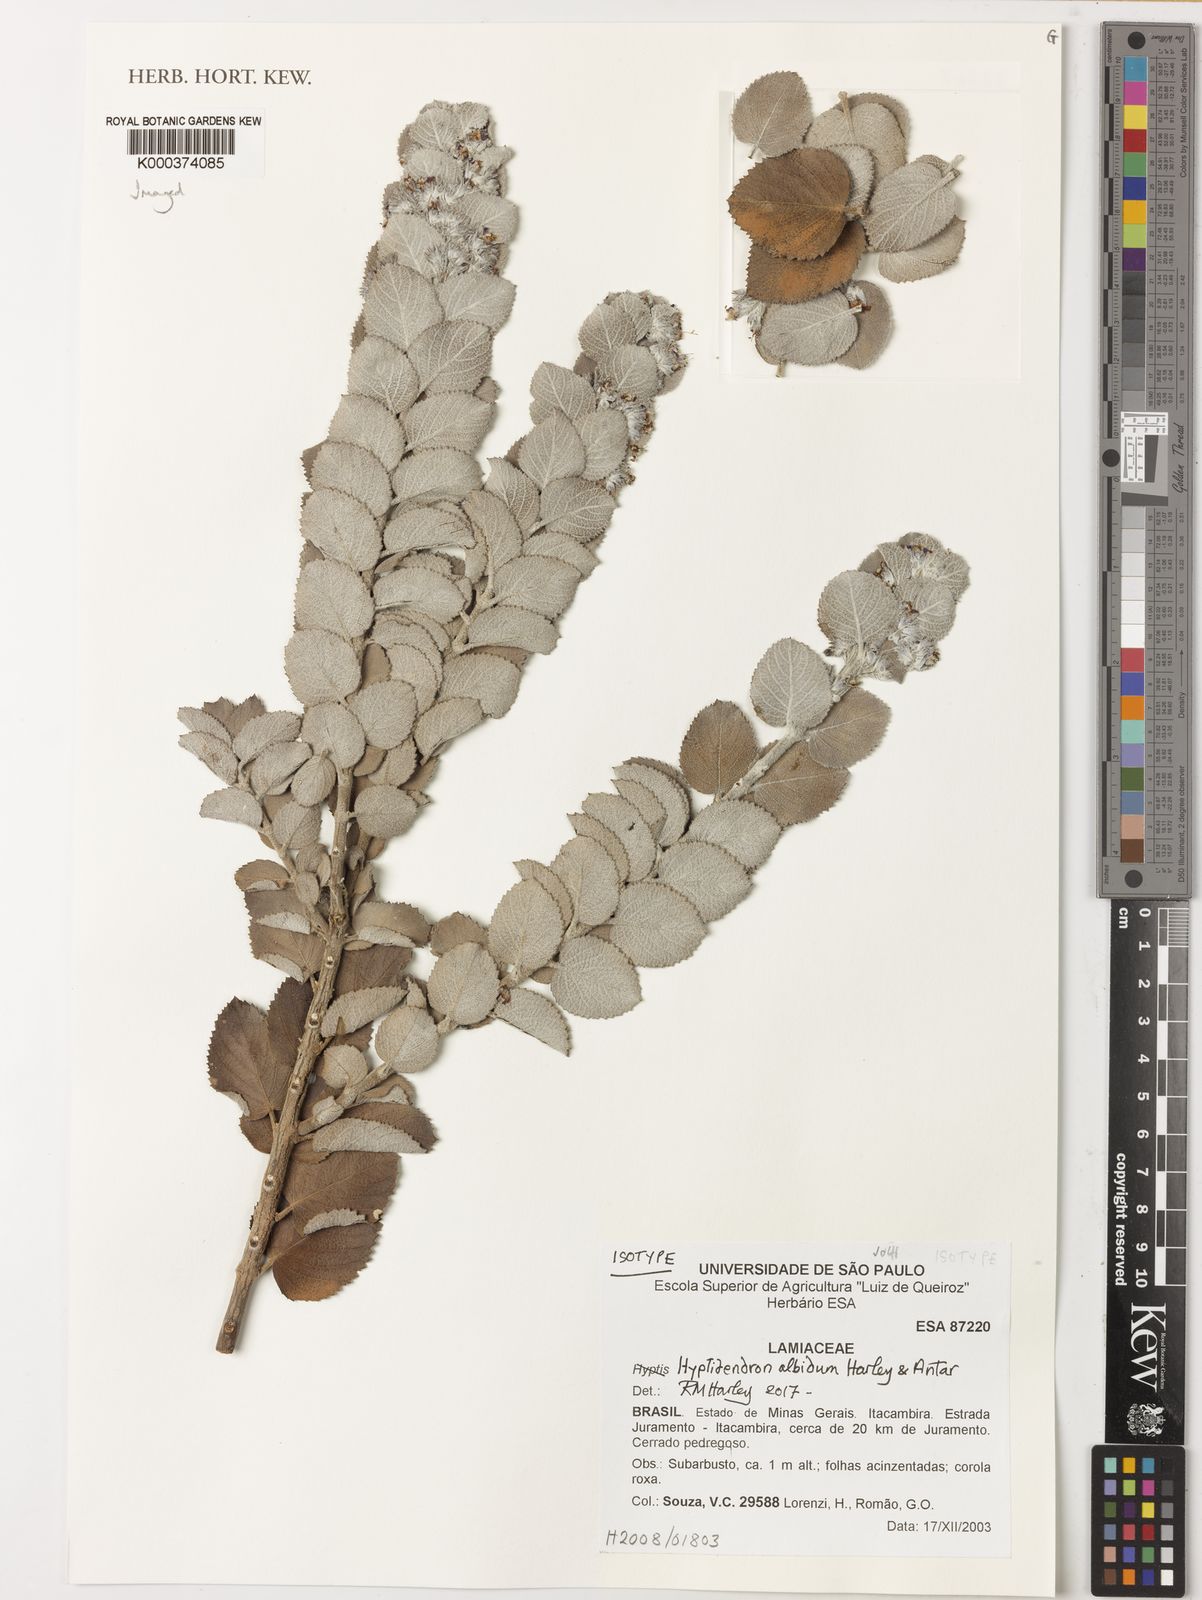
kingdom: Plantae
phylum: Tracheophyta
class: Magnoliopsida
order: Lamiales
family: Lamiaceae
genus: Hyptidendron
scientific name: Hyptidendron albidum
